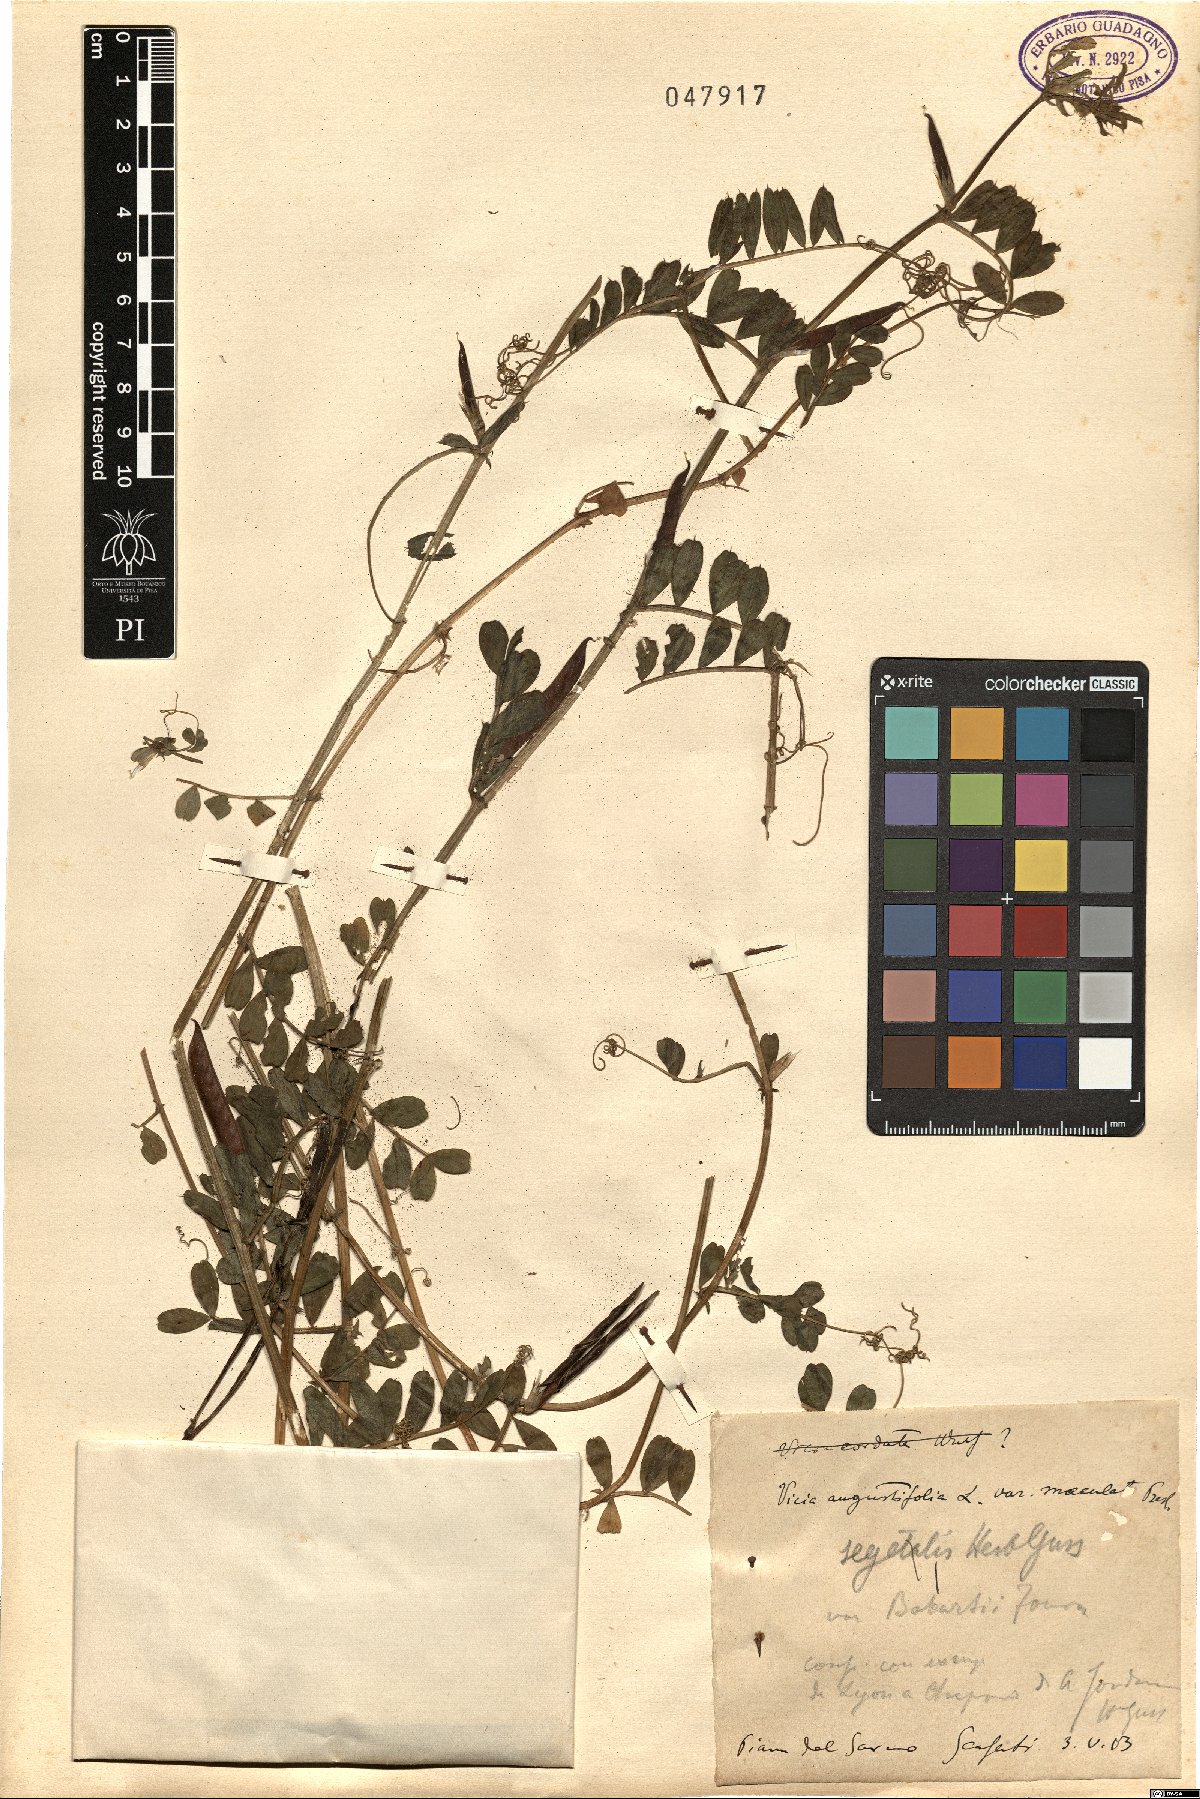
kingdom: Plantae
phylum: Tracheophyta
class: Magnoliopsida
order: Fabales
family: Fabaceae
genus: Vicia
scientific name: Vicia sativa
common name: Garden vetch
